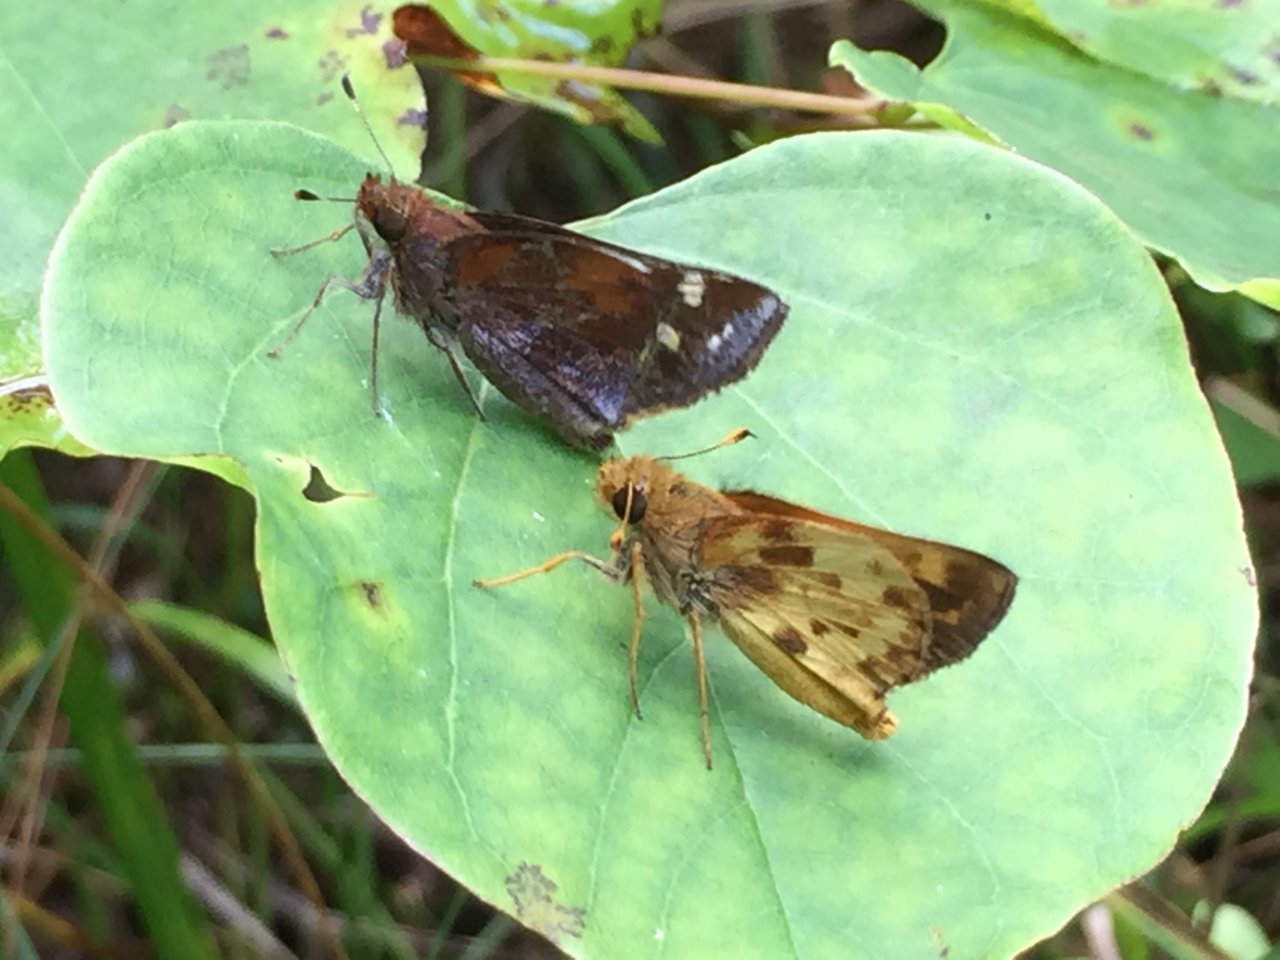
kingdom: Animalia
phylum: Arthropoda
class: Insecta
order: Lepidoptera
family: Hesperiidae
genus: Lon
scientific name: Lon zabulon
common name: Zabulon Skipper
